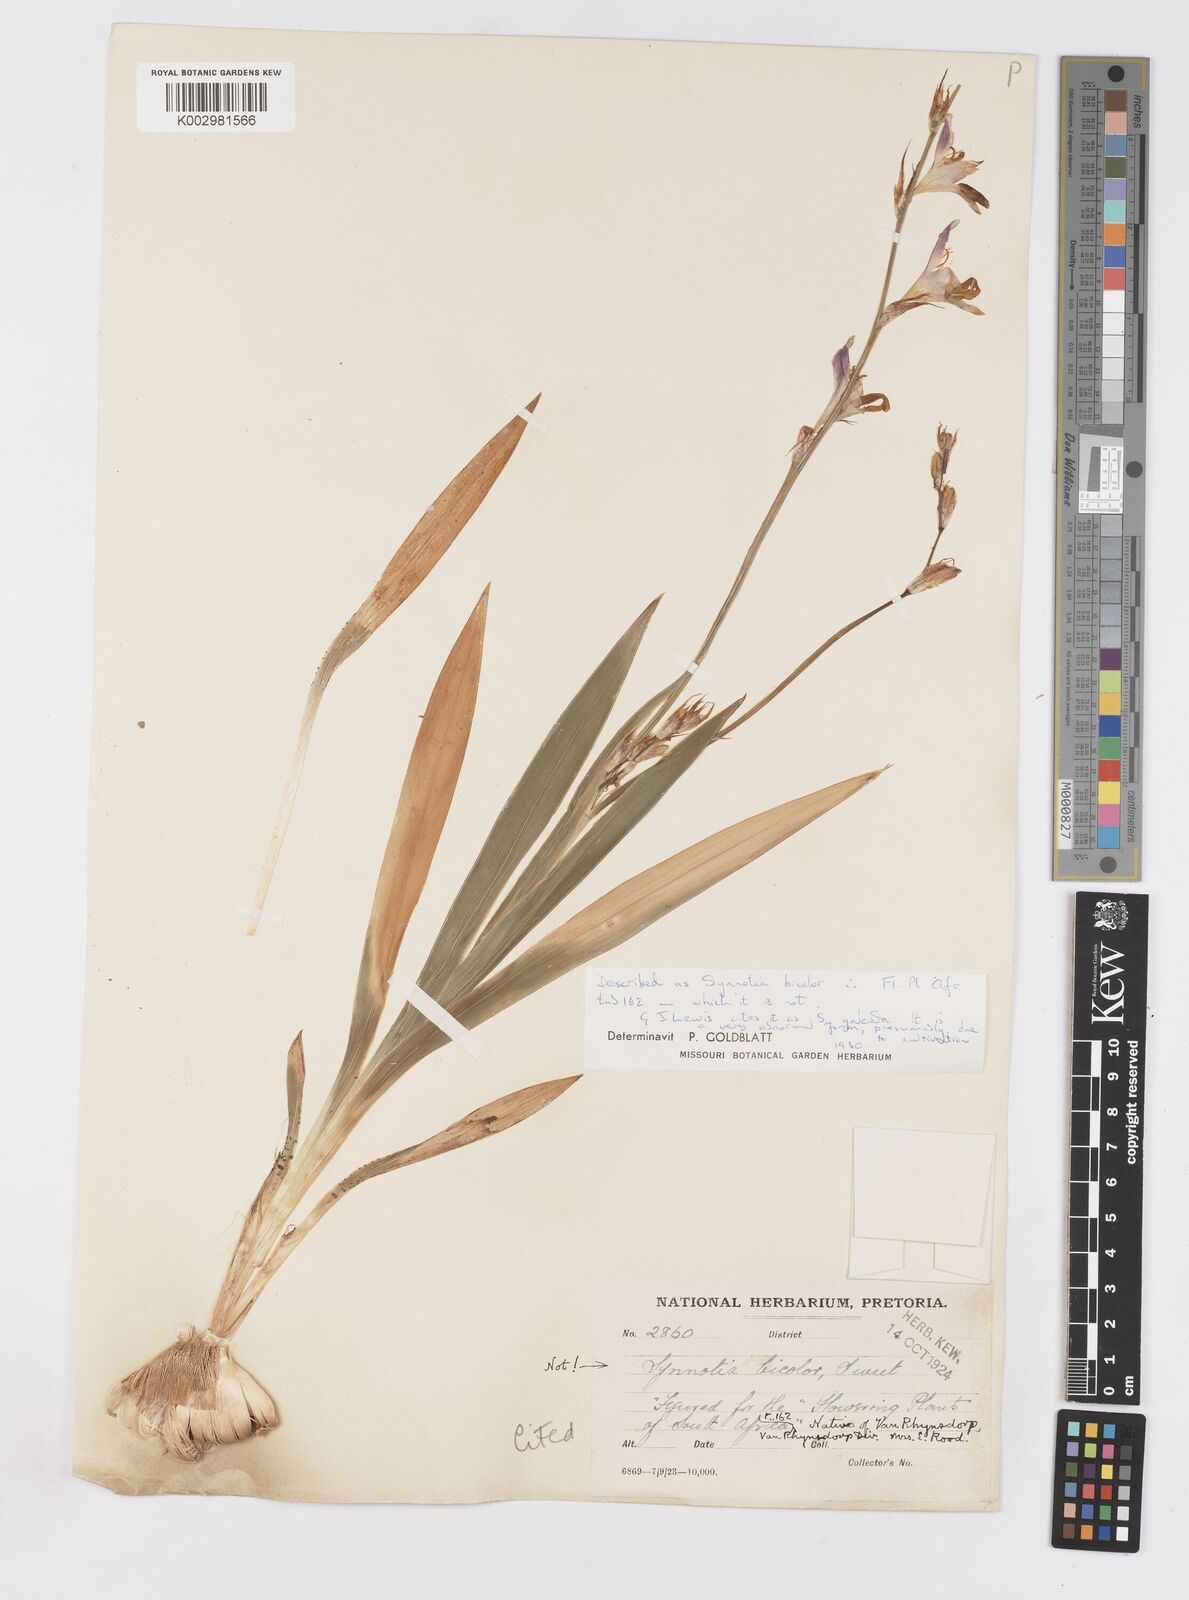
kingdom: Plantae
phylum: Tracheophyta
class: Liliopsida
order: Asparagales
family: Iridaceae
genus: Sparaxis
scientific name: Sparaxis
